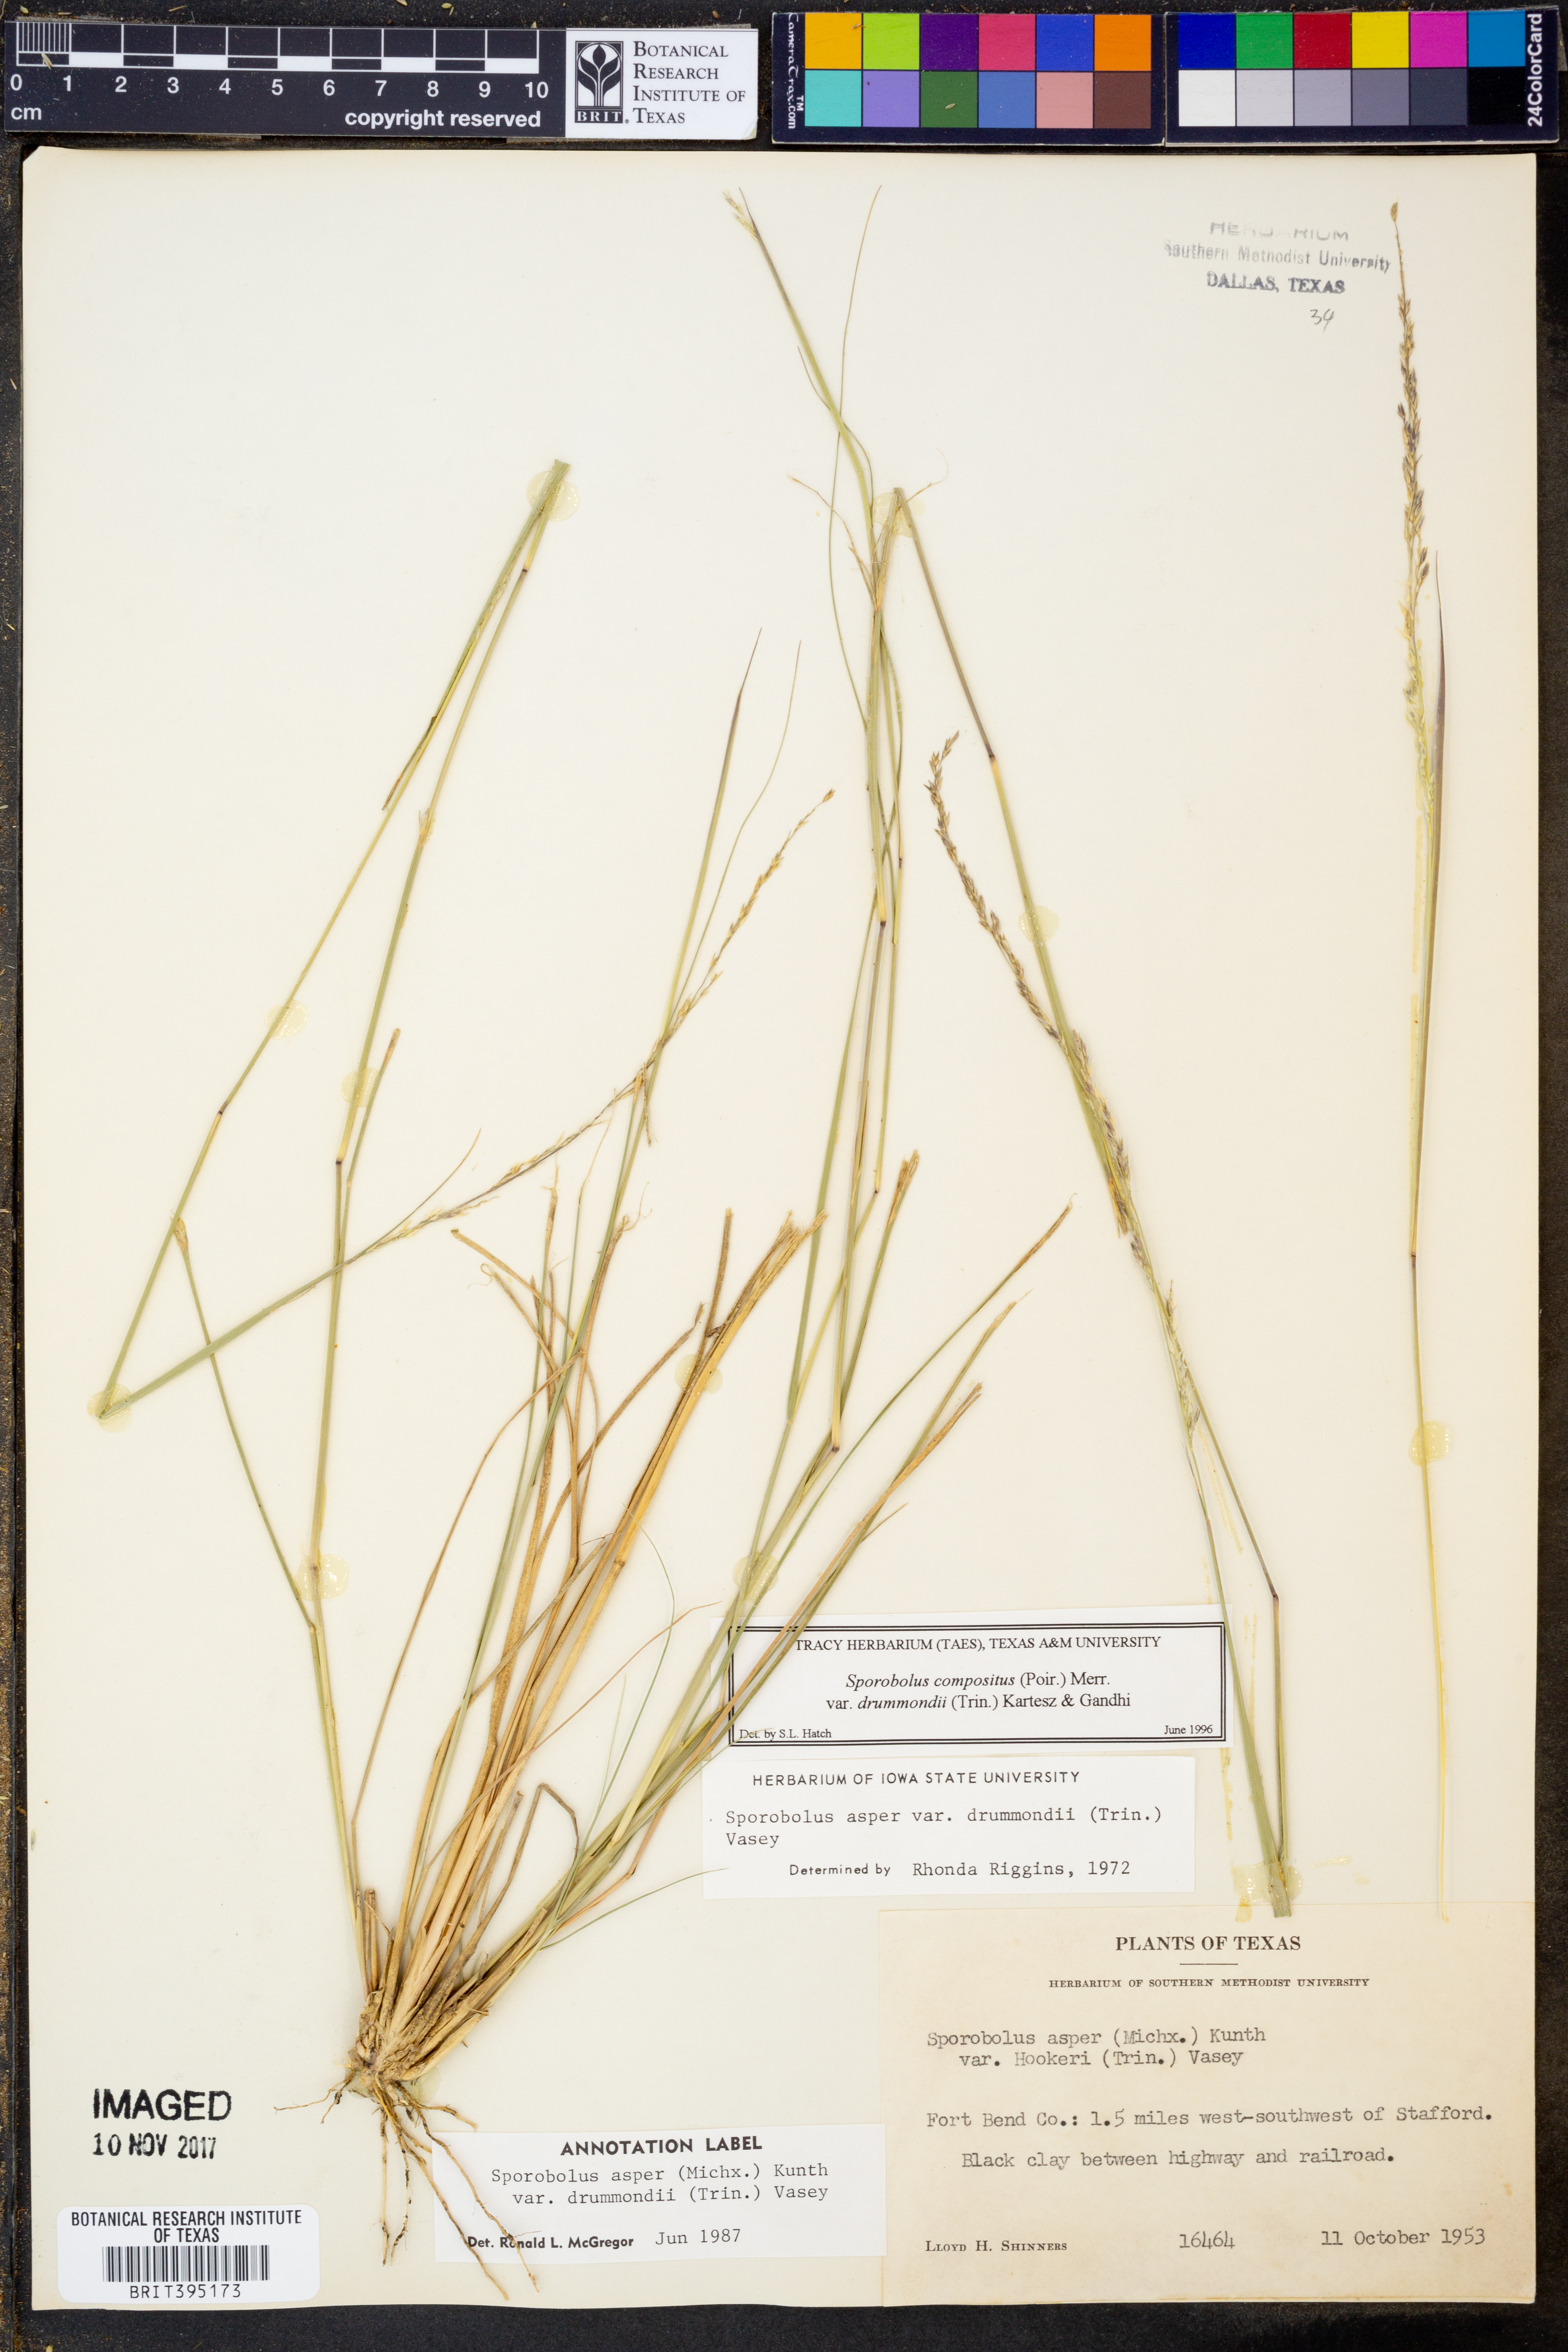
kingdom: Plantae
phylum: Tracheophyta
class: Liliopsida
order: Poales
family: Poaceae
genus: Sporobolus
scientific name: Sporobolus compositus
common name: Rough dropseed
